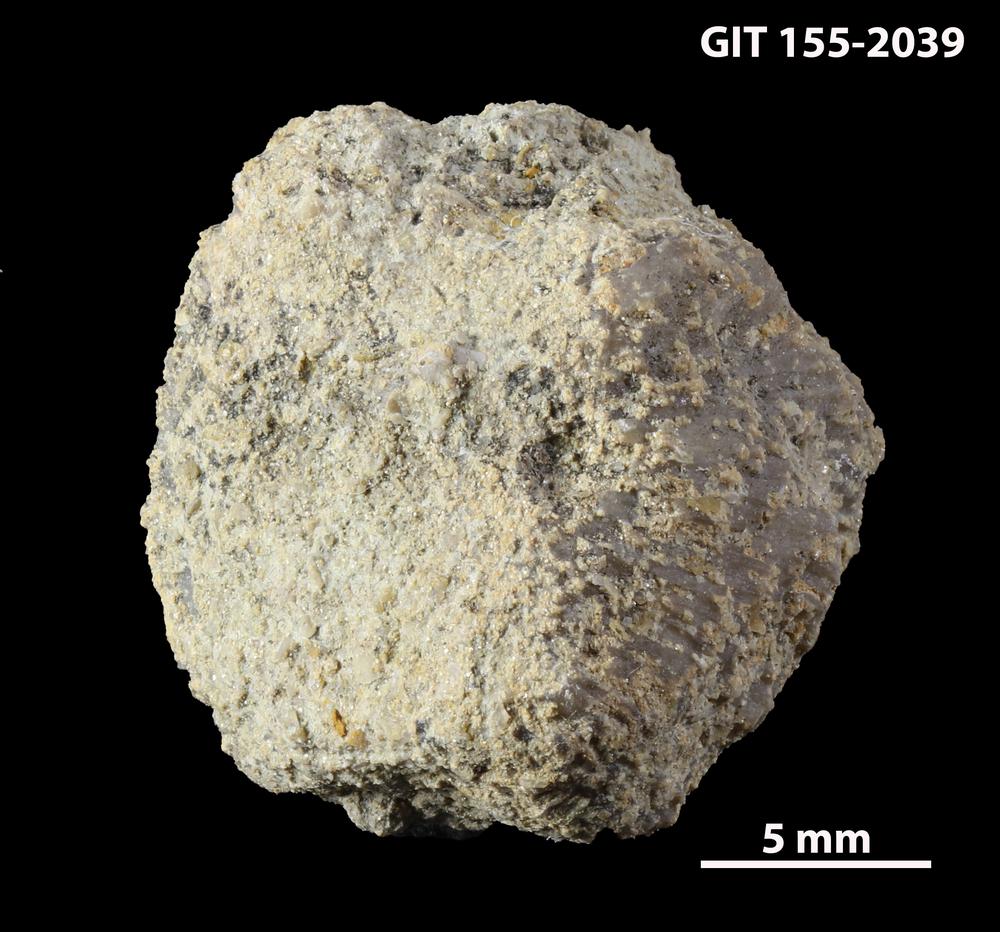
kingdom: Animalia
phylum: Bryozoa
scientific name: Bryozoa
